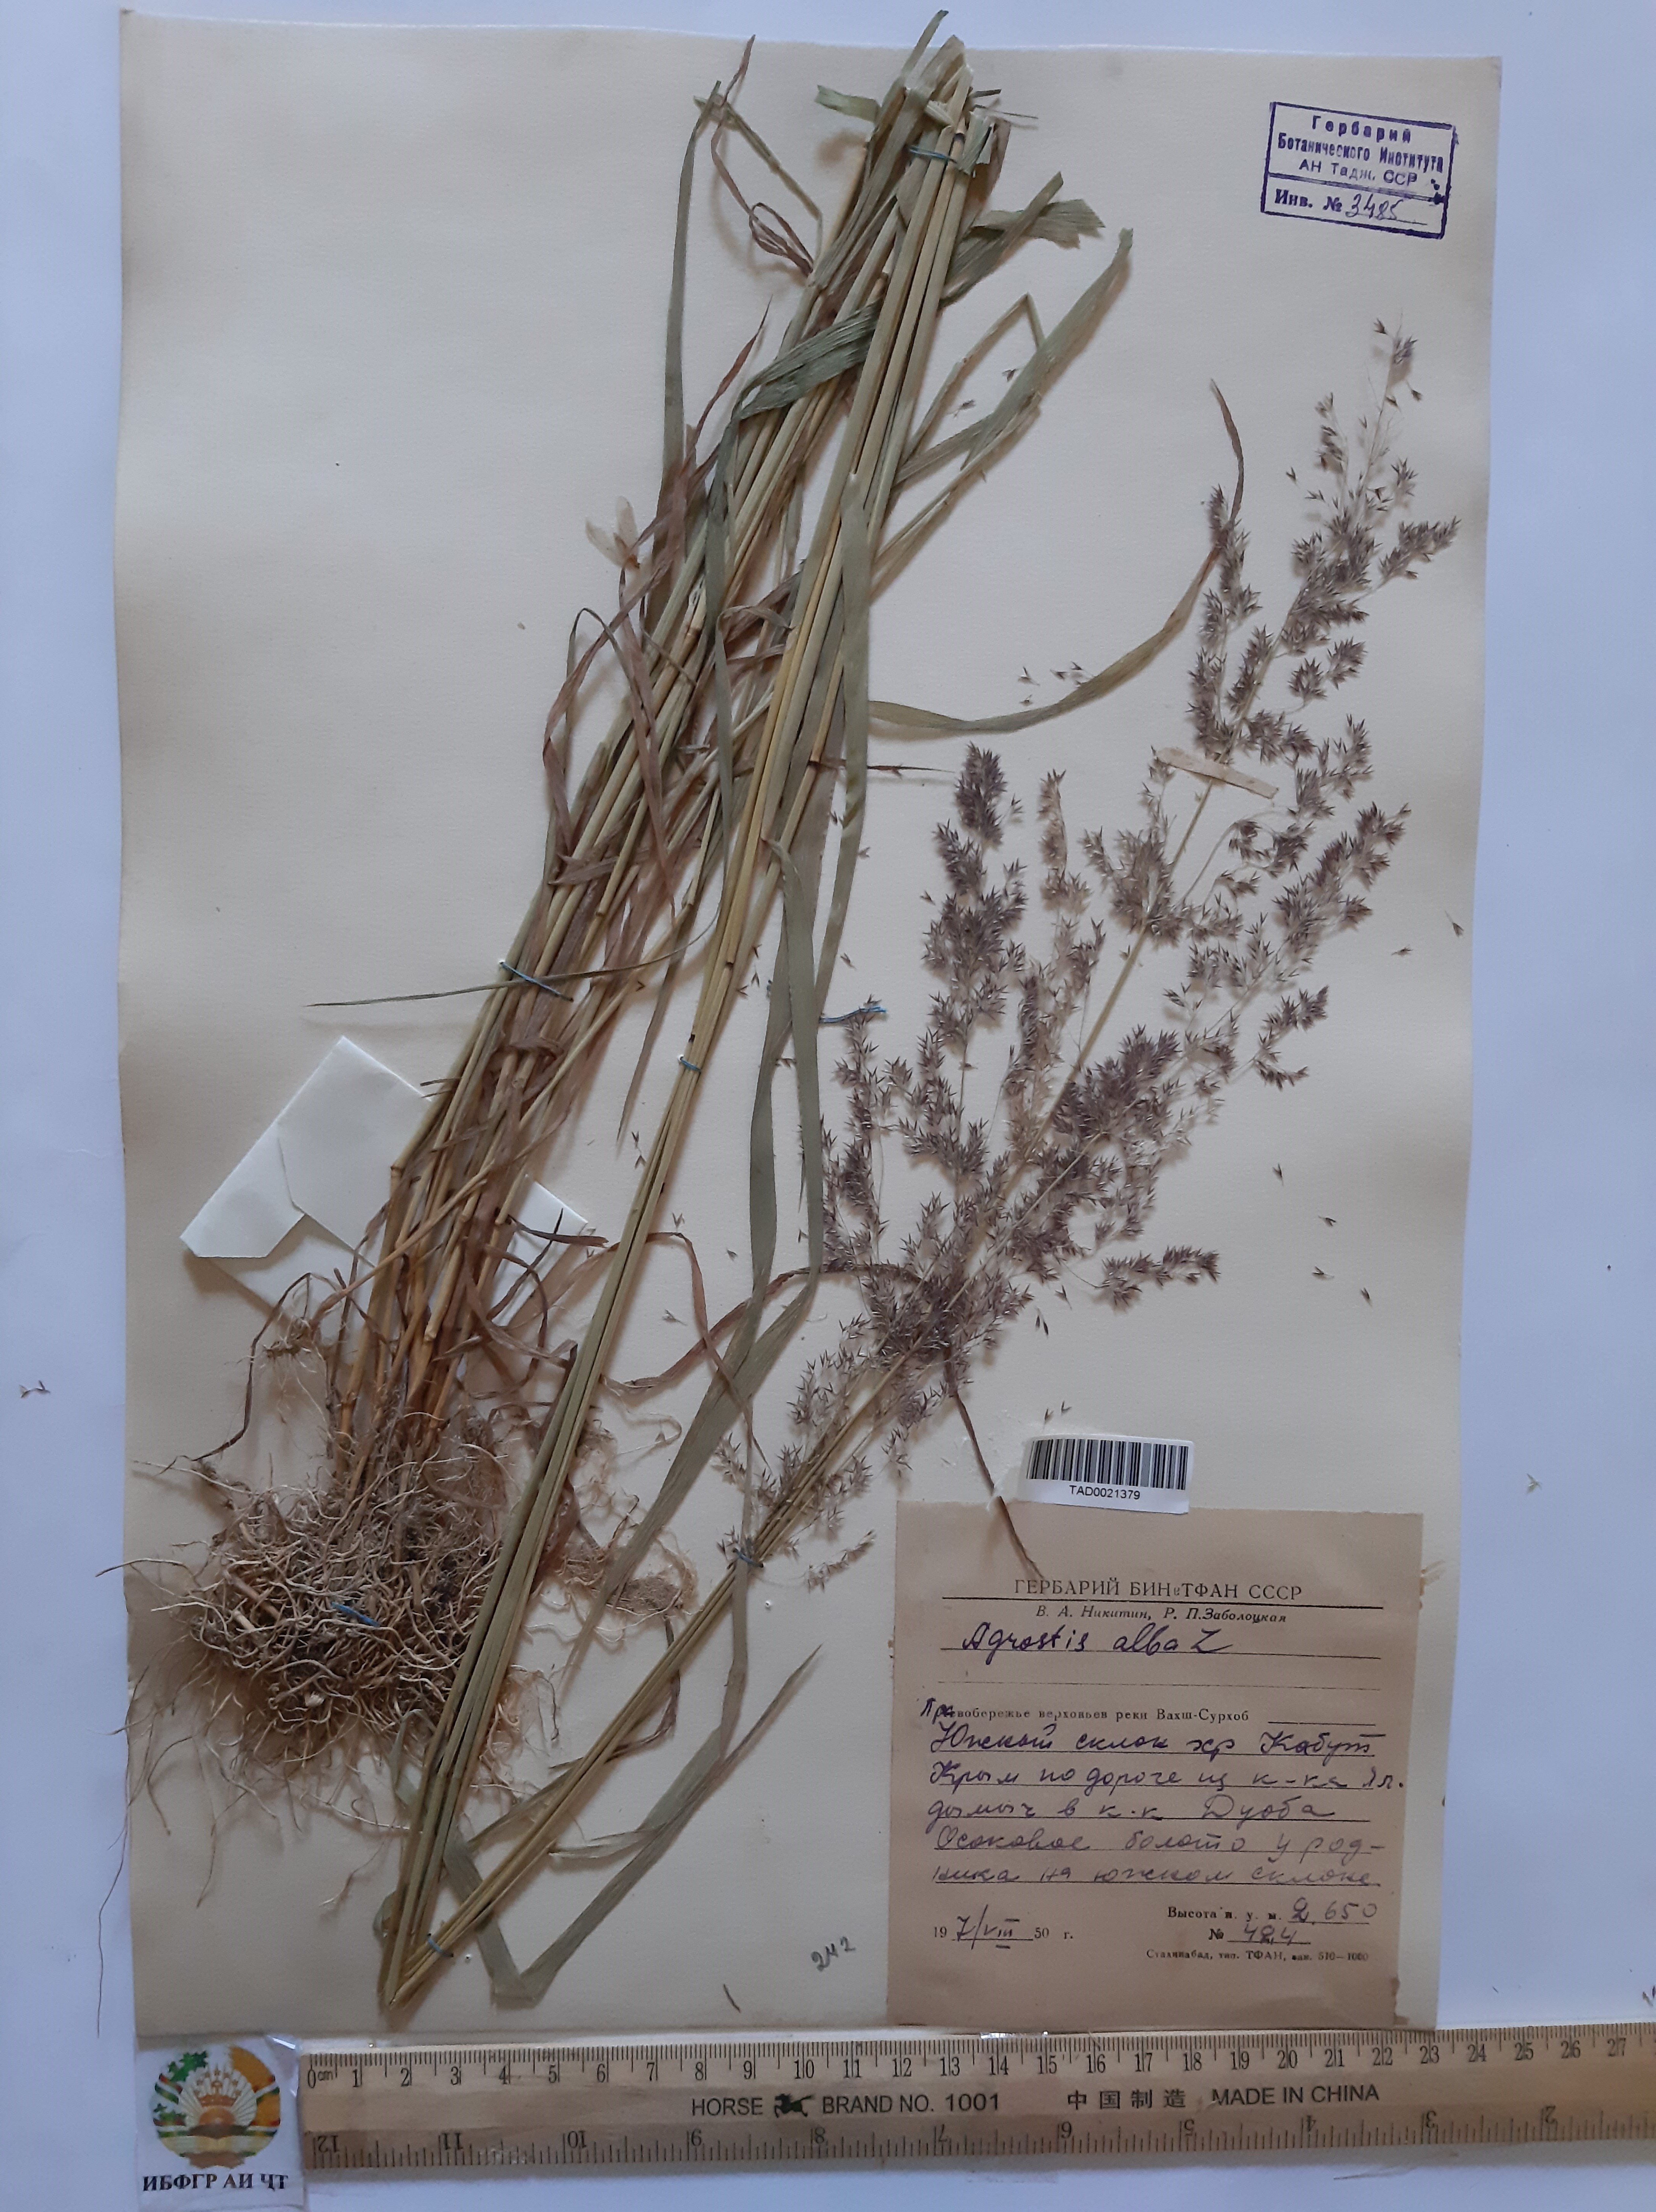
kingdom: Plantae
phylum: Tracheophyta
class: Liliopsida
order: Poales
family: Poaceae
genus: Poa
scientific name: Poa nemoralis
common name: Wood bluegrass
